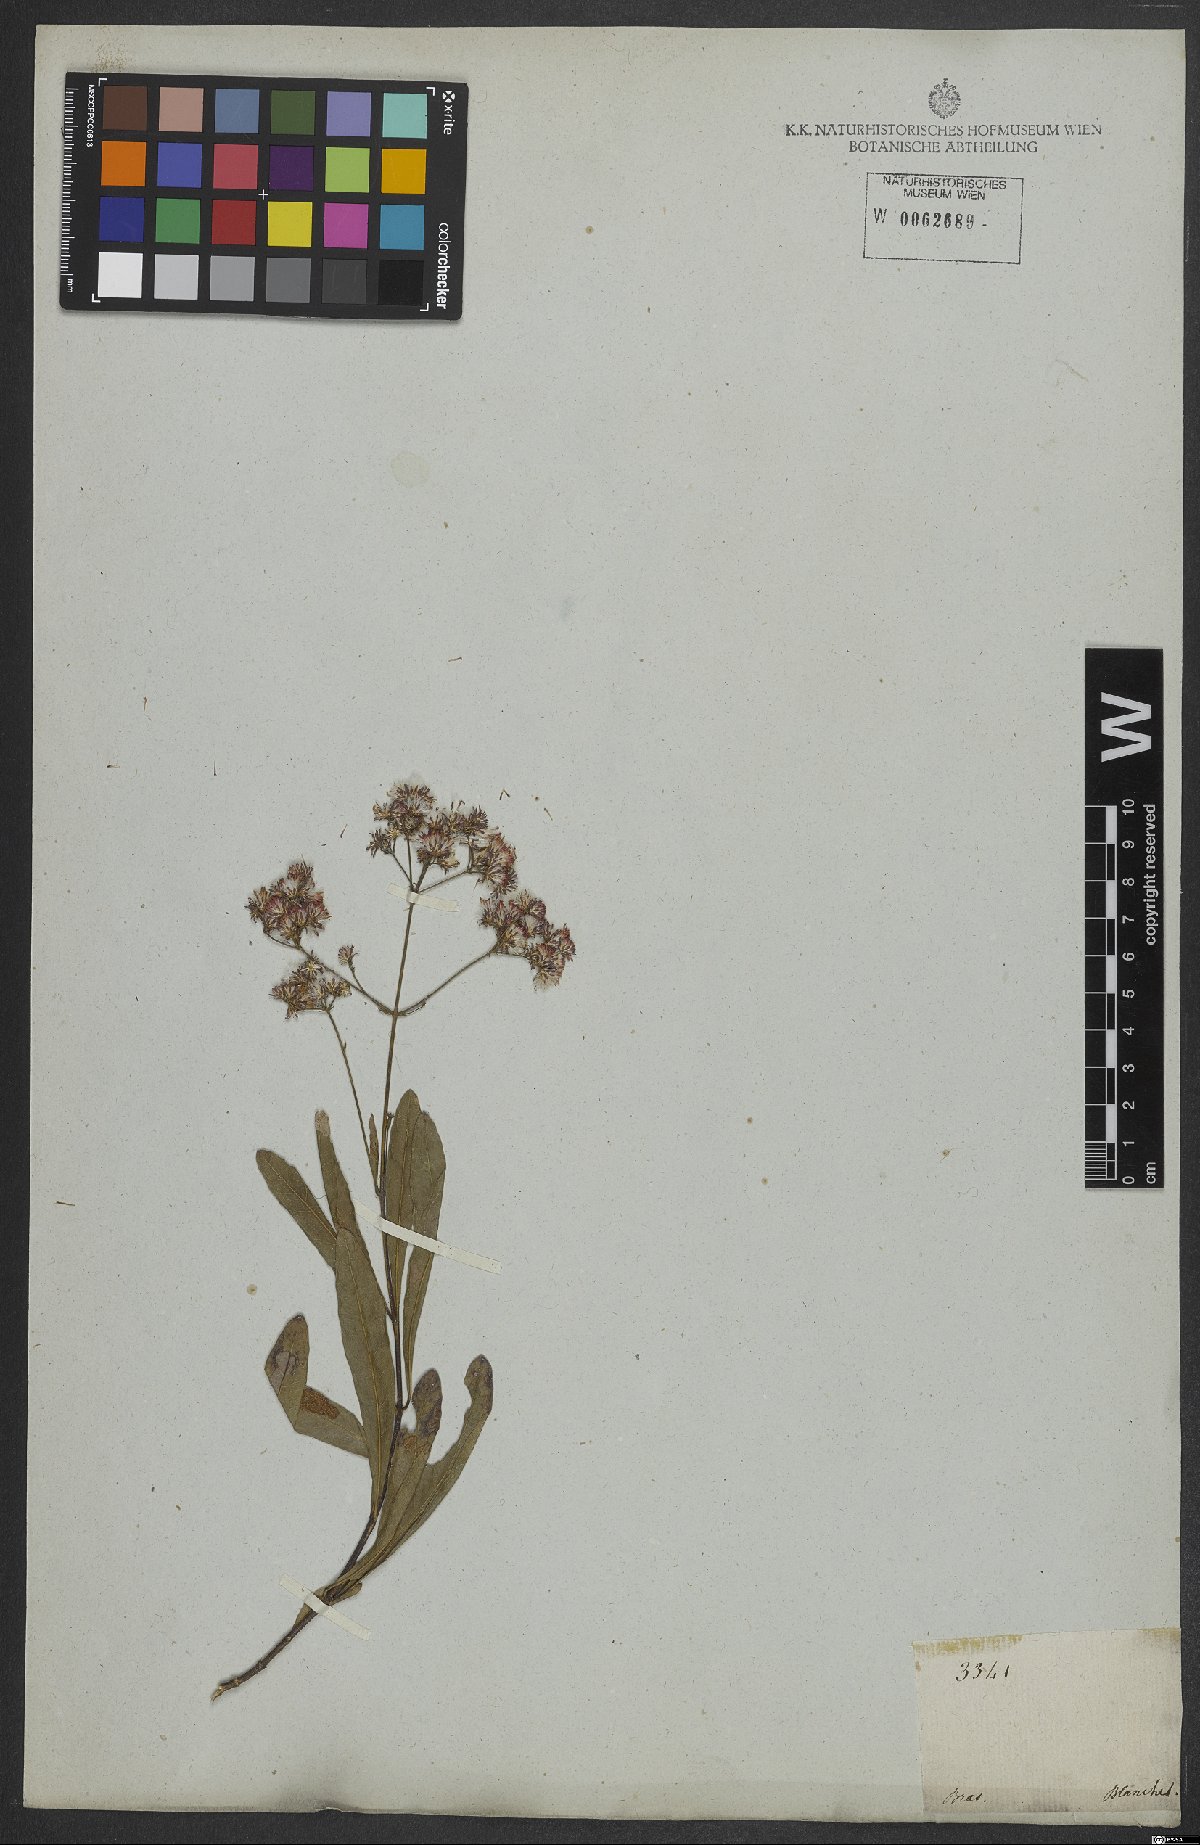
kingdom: Plantae
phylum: Tracheophyta
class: Magnoliopsida
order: Asterales
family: Asteraceae
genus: Ayapana
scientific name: Ayapana amygdalina
